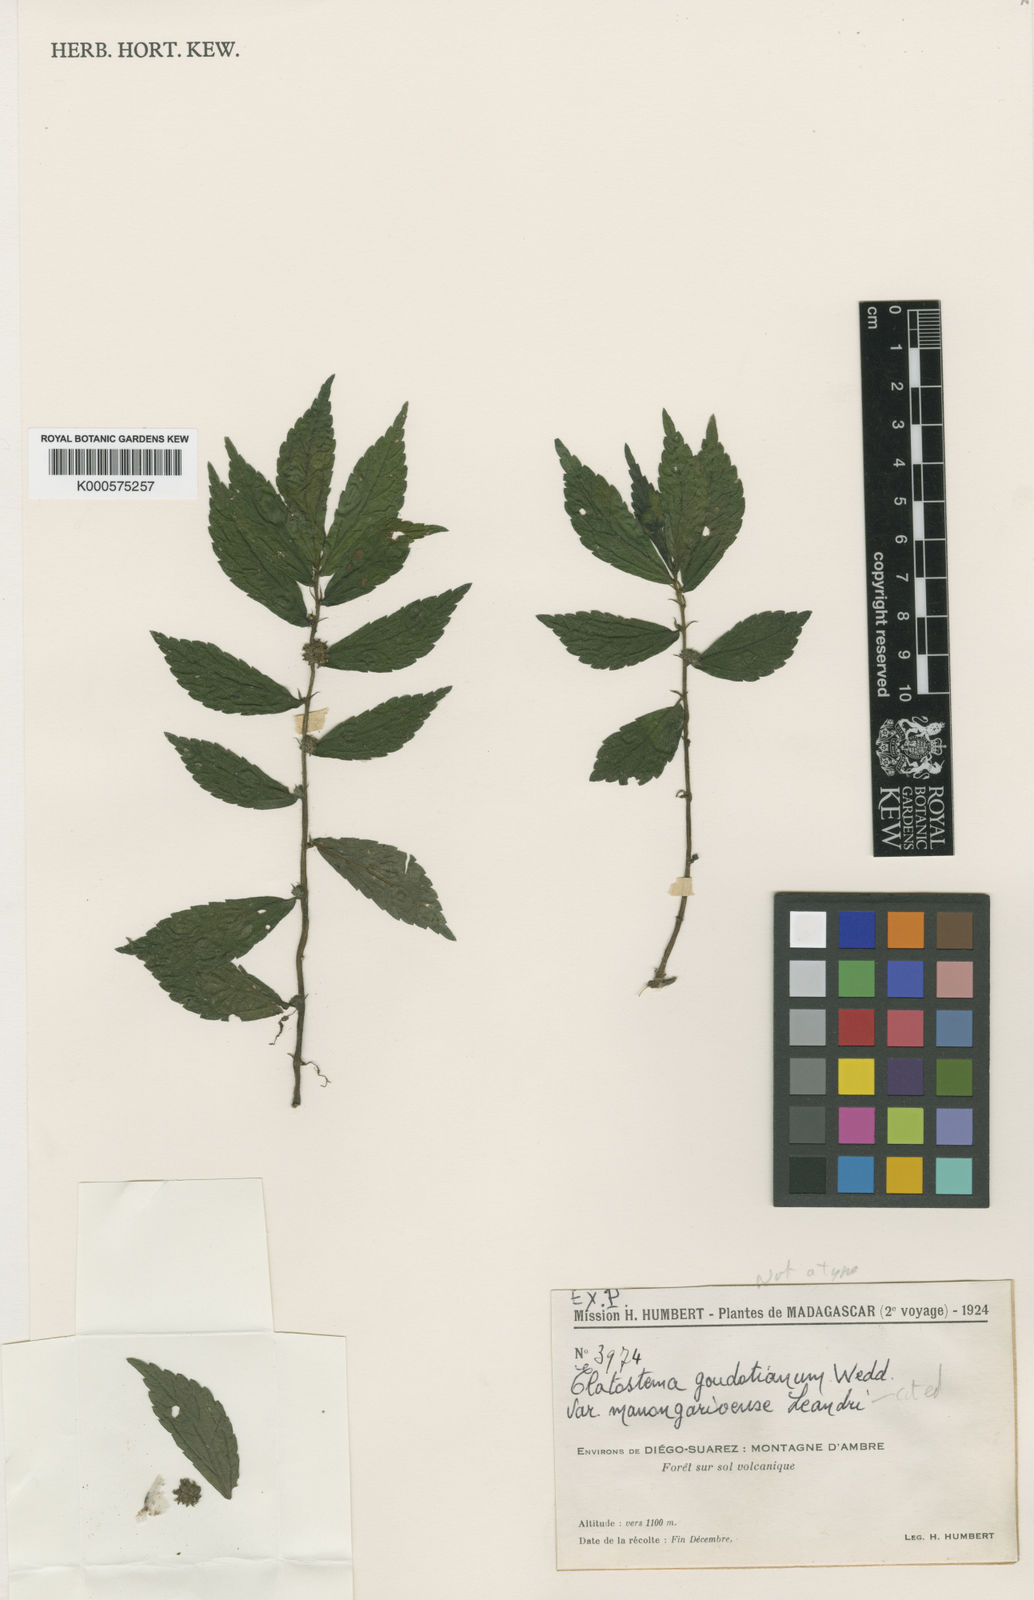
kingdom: Plantae
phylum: Tracheophyta
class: Magnoliopsida
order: Rosales
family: Urticaceae
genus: Elatostema
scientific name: Elatostema goudotianum
